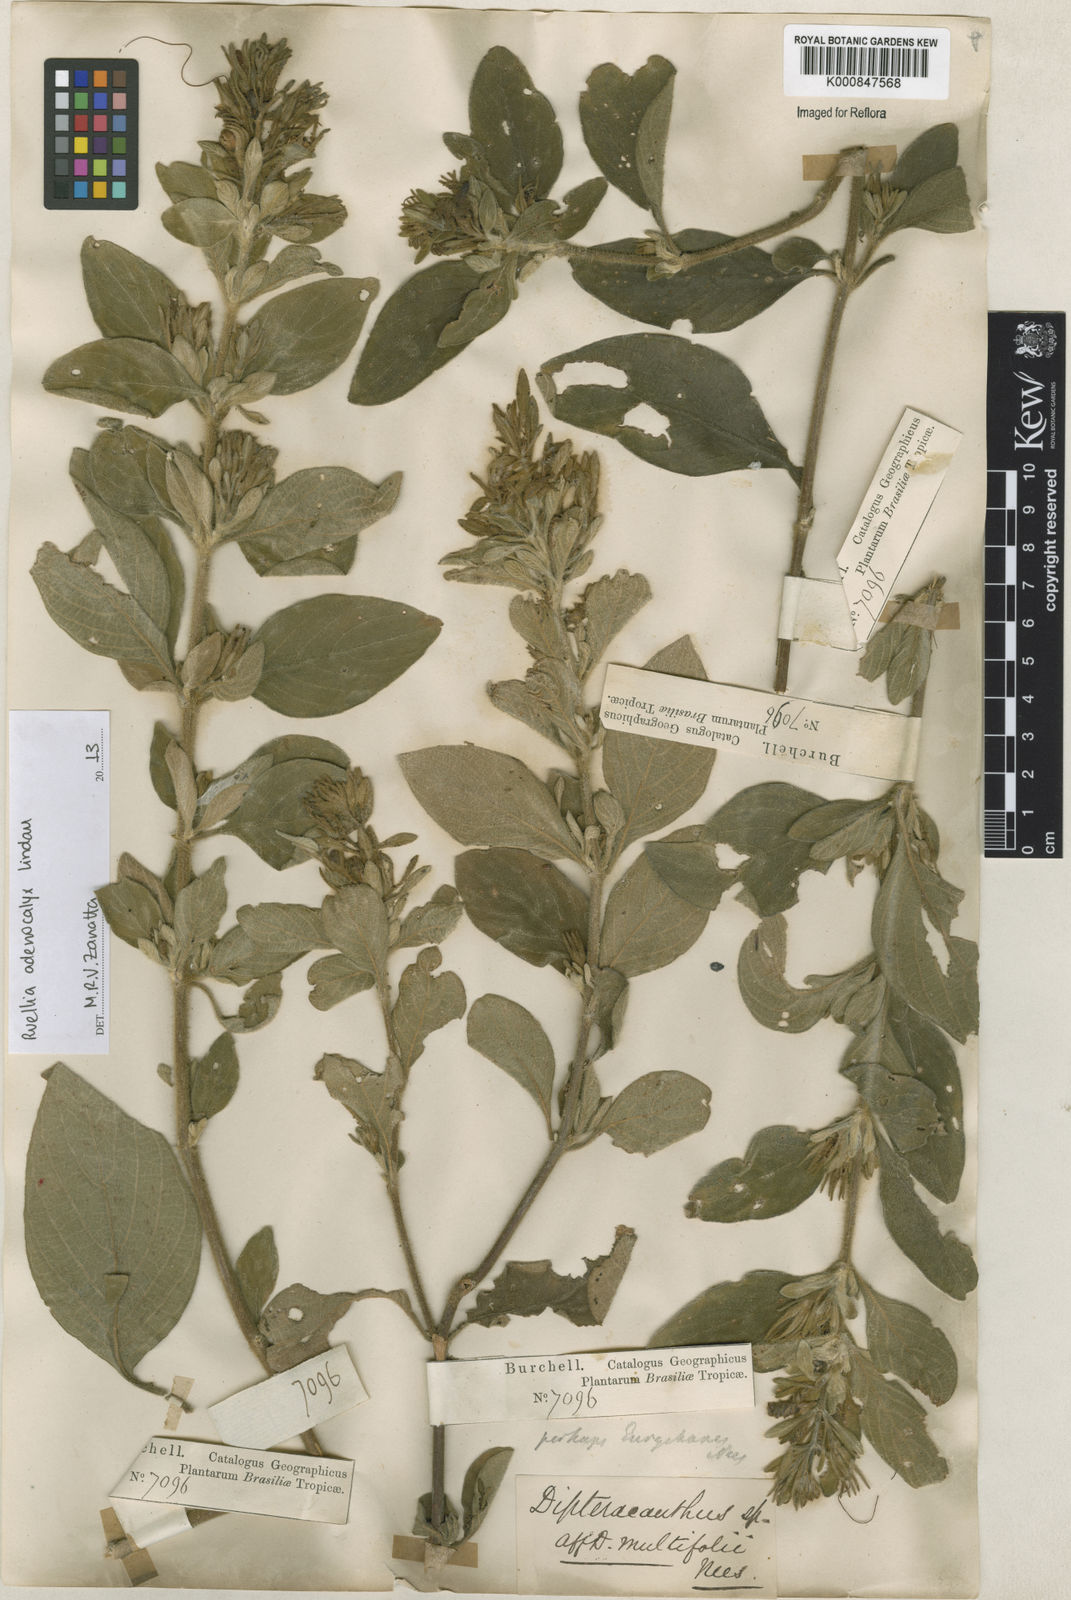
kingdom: Plantae
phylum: Tracheophyta
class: Magnoliopsida
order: Lamiales
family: Acanthaceae
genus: Ruellia
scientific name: Ruellia adenocalyx
